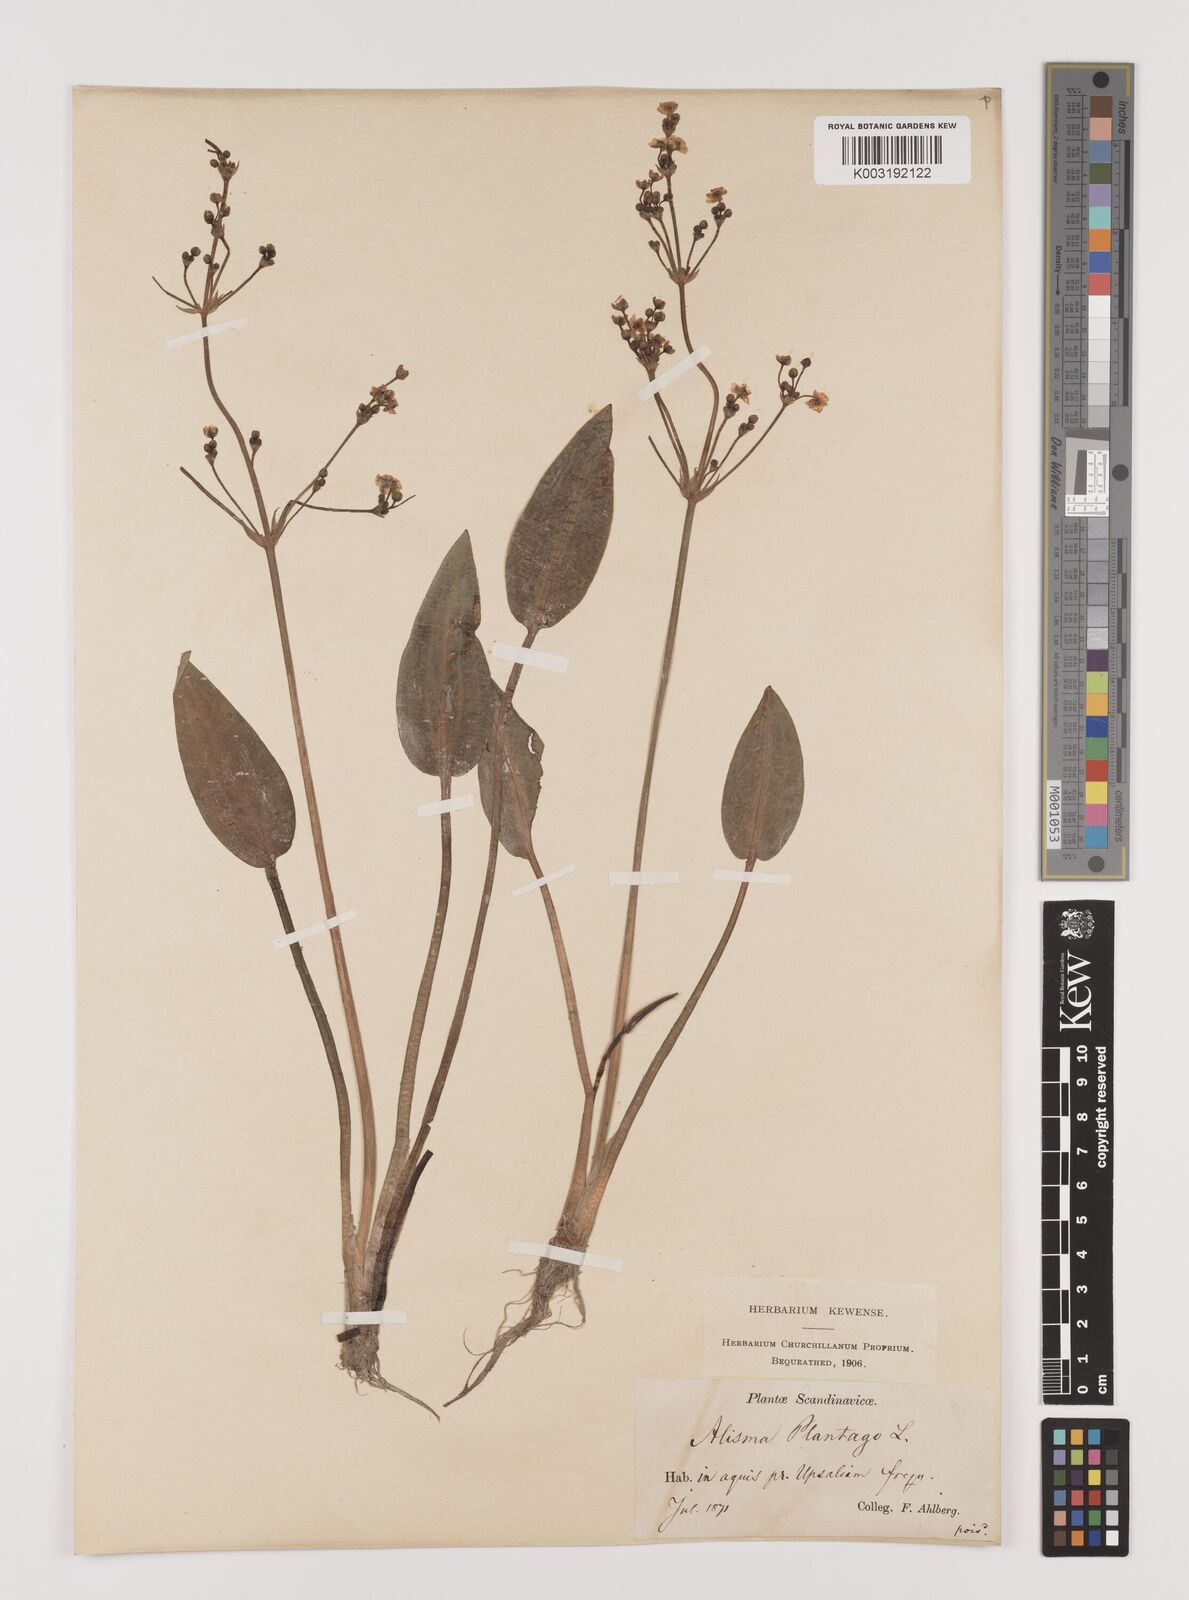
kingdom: Plantae
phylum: Tracheophyta
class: Liliopsida
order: Alismatales
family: Alismataceae
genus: Alisma
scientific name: Alisma plantago-aquatica
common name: Water-plantain
